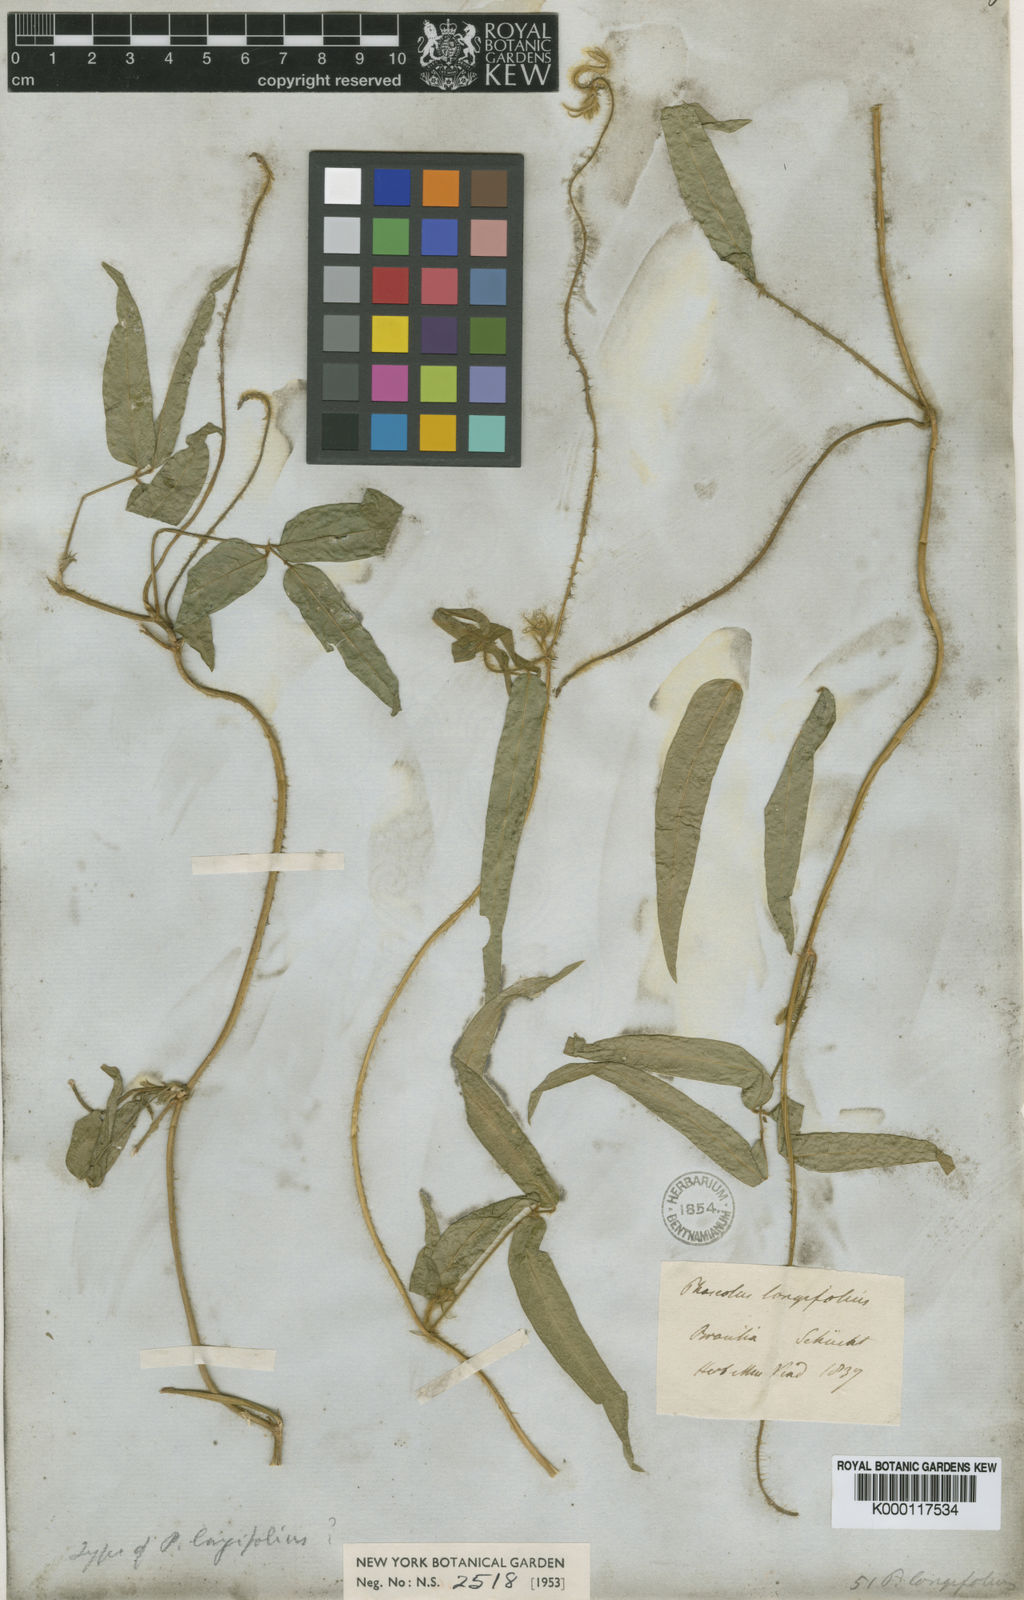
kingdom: Plantae
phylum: Tracheophyta
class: Magnoliopsida
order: Fabales
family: Fabaceae
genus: Vigna
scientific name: Vigna longifolia
